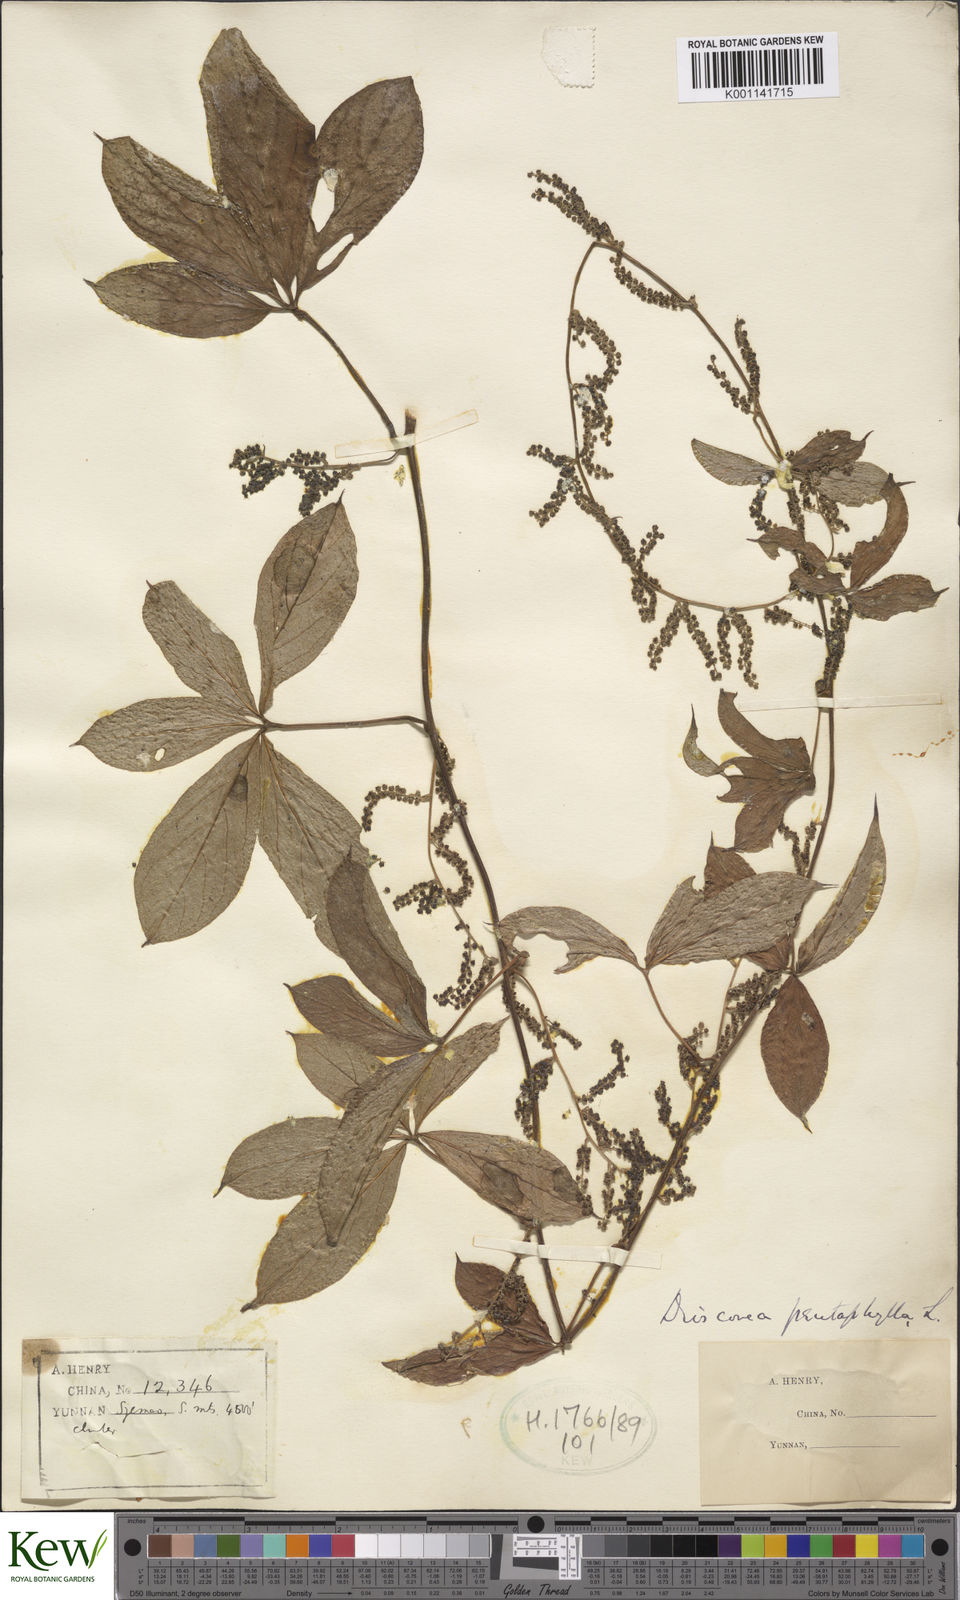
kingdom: Plantae
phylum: Tracheophyta
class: Liliopsida
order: Dioscoreales
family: Dioscoreaceae
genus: Dioscorea
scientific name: Dioscorea pentaphylla
